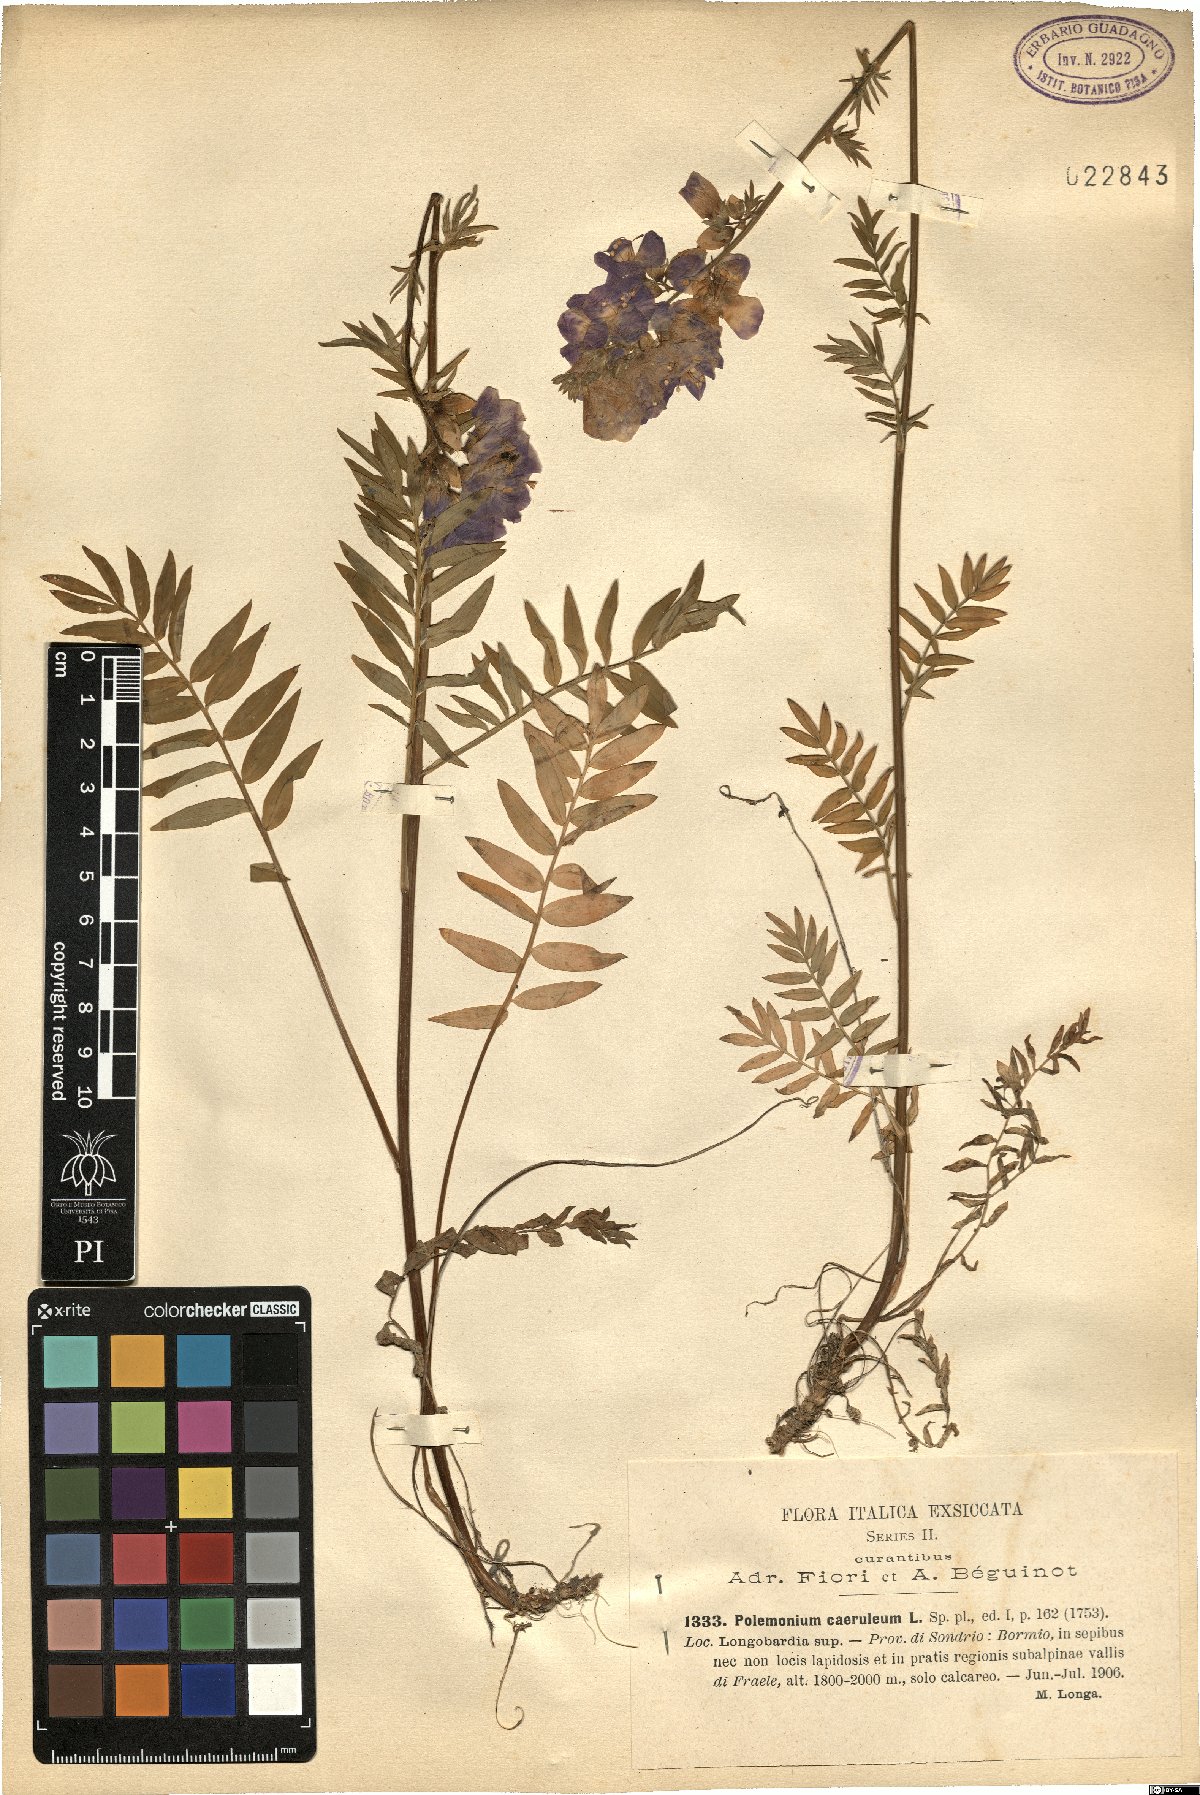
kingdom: Plantae
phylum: Tracheophyta
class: Magnoliopsida
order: Ericales
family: Polemoniaceae
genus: Polemonium
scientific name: Polemonium caeruleum
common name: Jacob's-ladder
